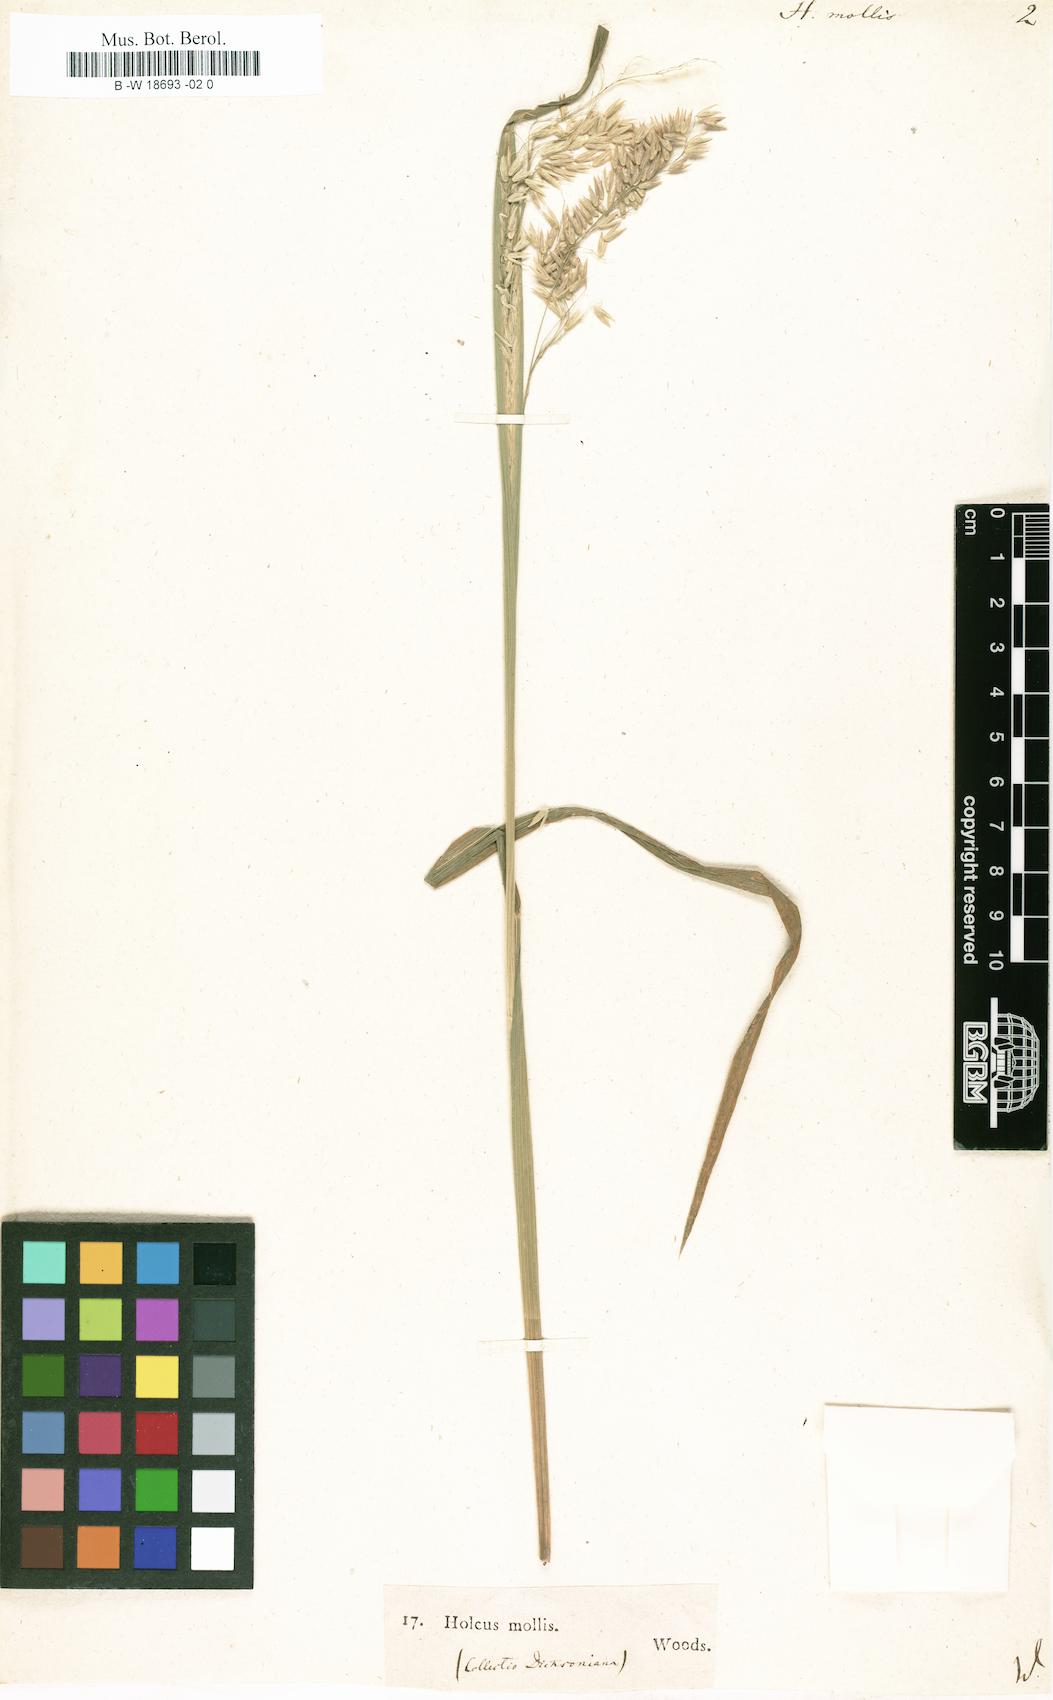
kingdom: Plantae
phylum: Tracheophyta
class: Liliopsida
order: Poales
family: Poaceae
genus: Holcus
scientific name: Holcus mollis
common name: Creeping velvetgrass
